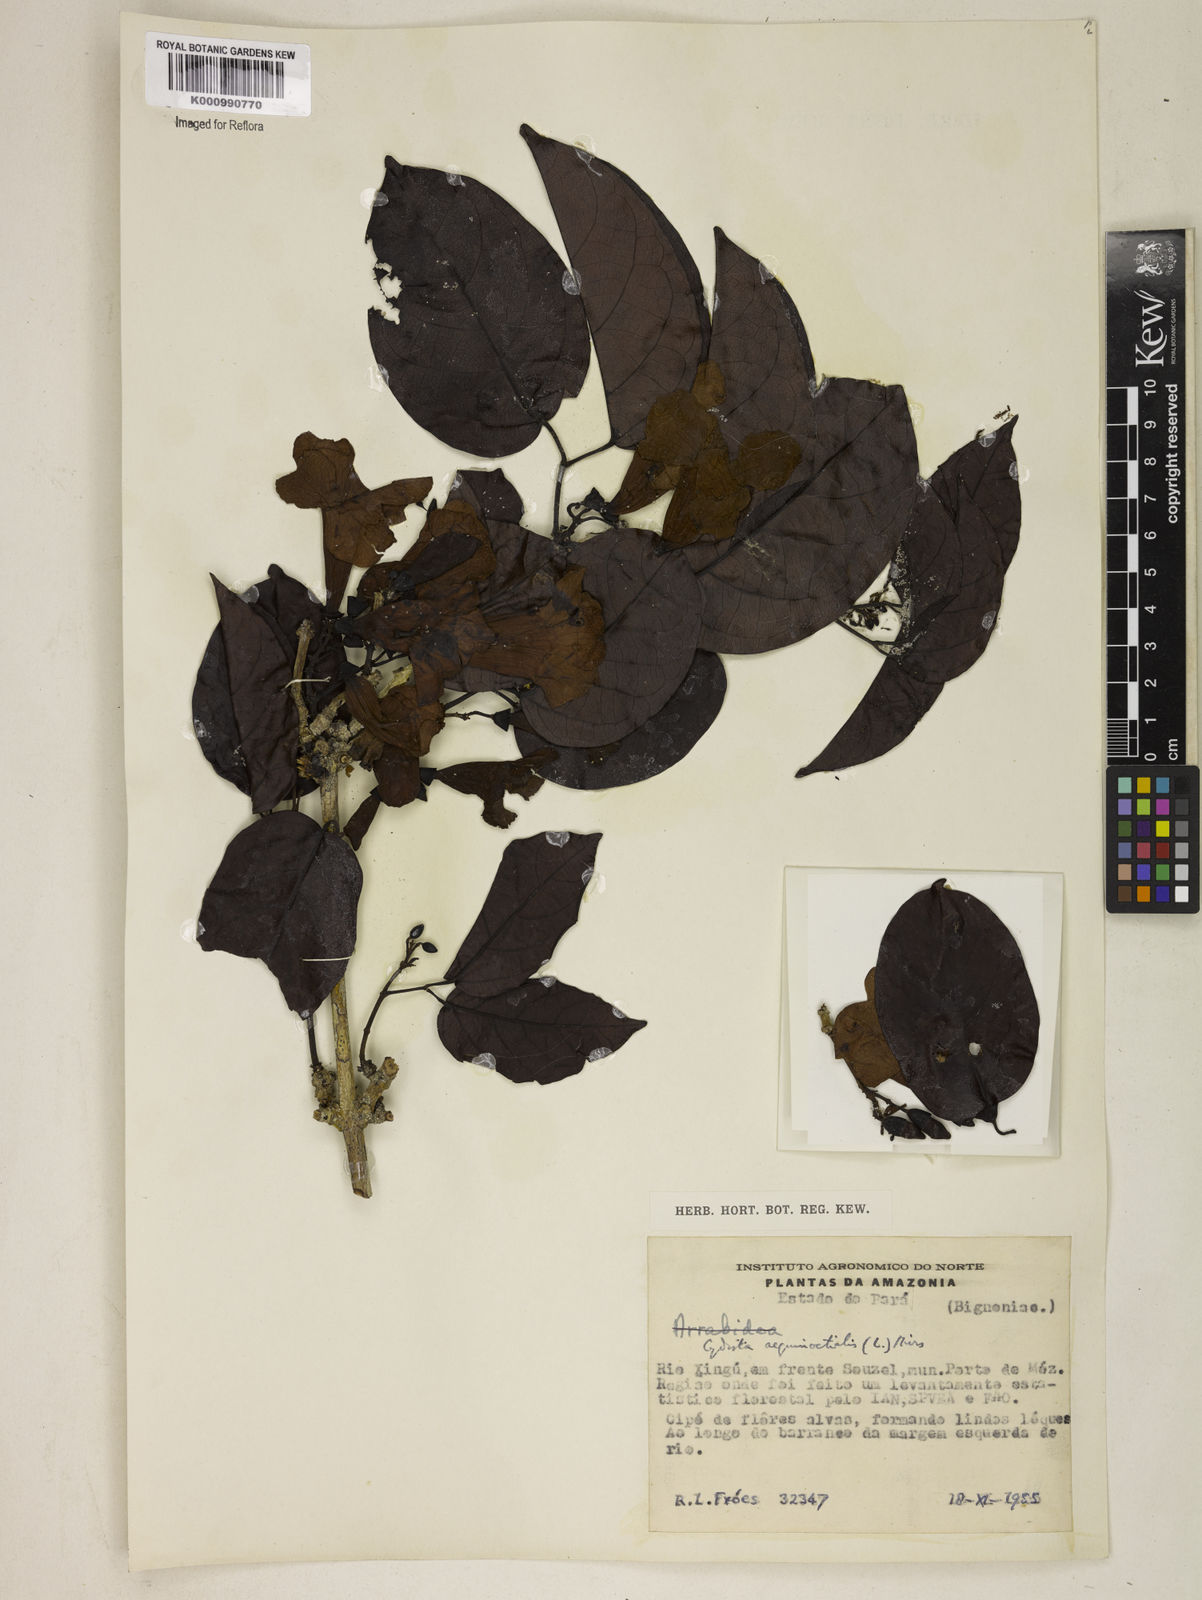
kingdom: Plantae
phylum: Tracheophyta
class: Magnoliopsida
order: Lamiales
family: Bignoniaceae
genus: Bignonia
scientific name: Bignonia aequinoctialis
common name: Garlicvine
